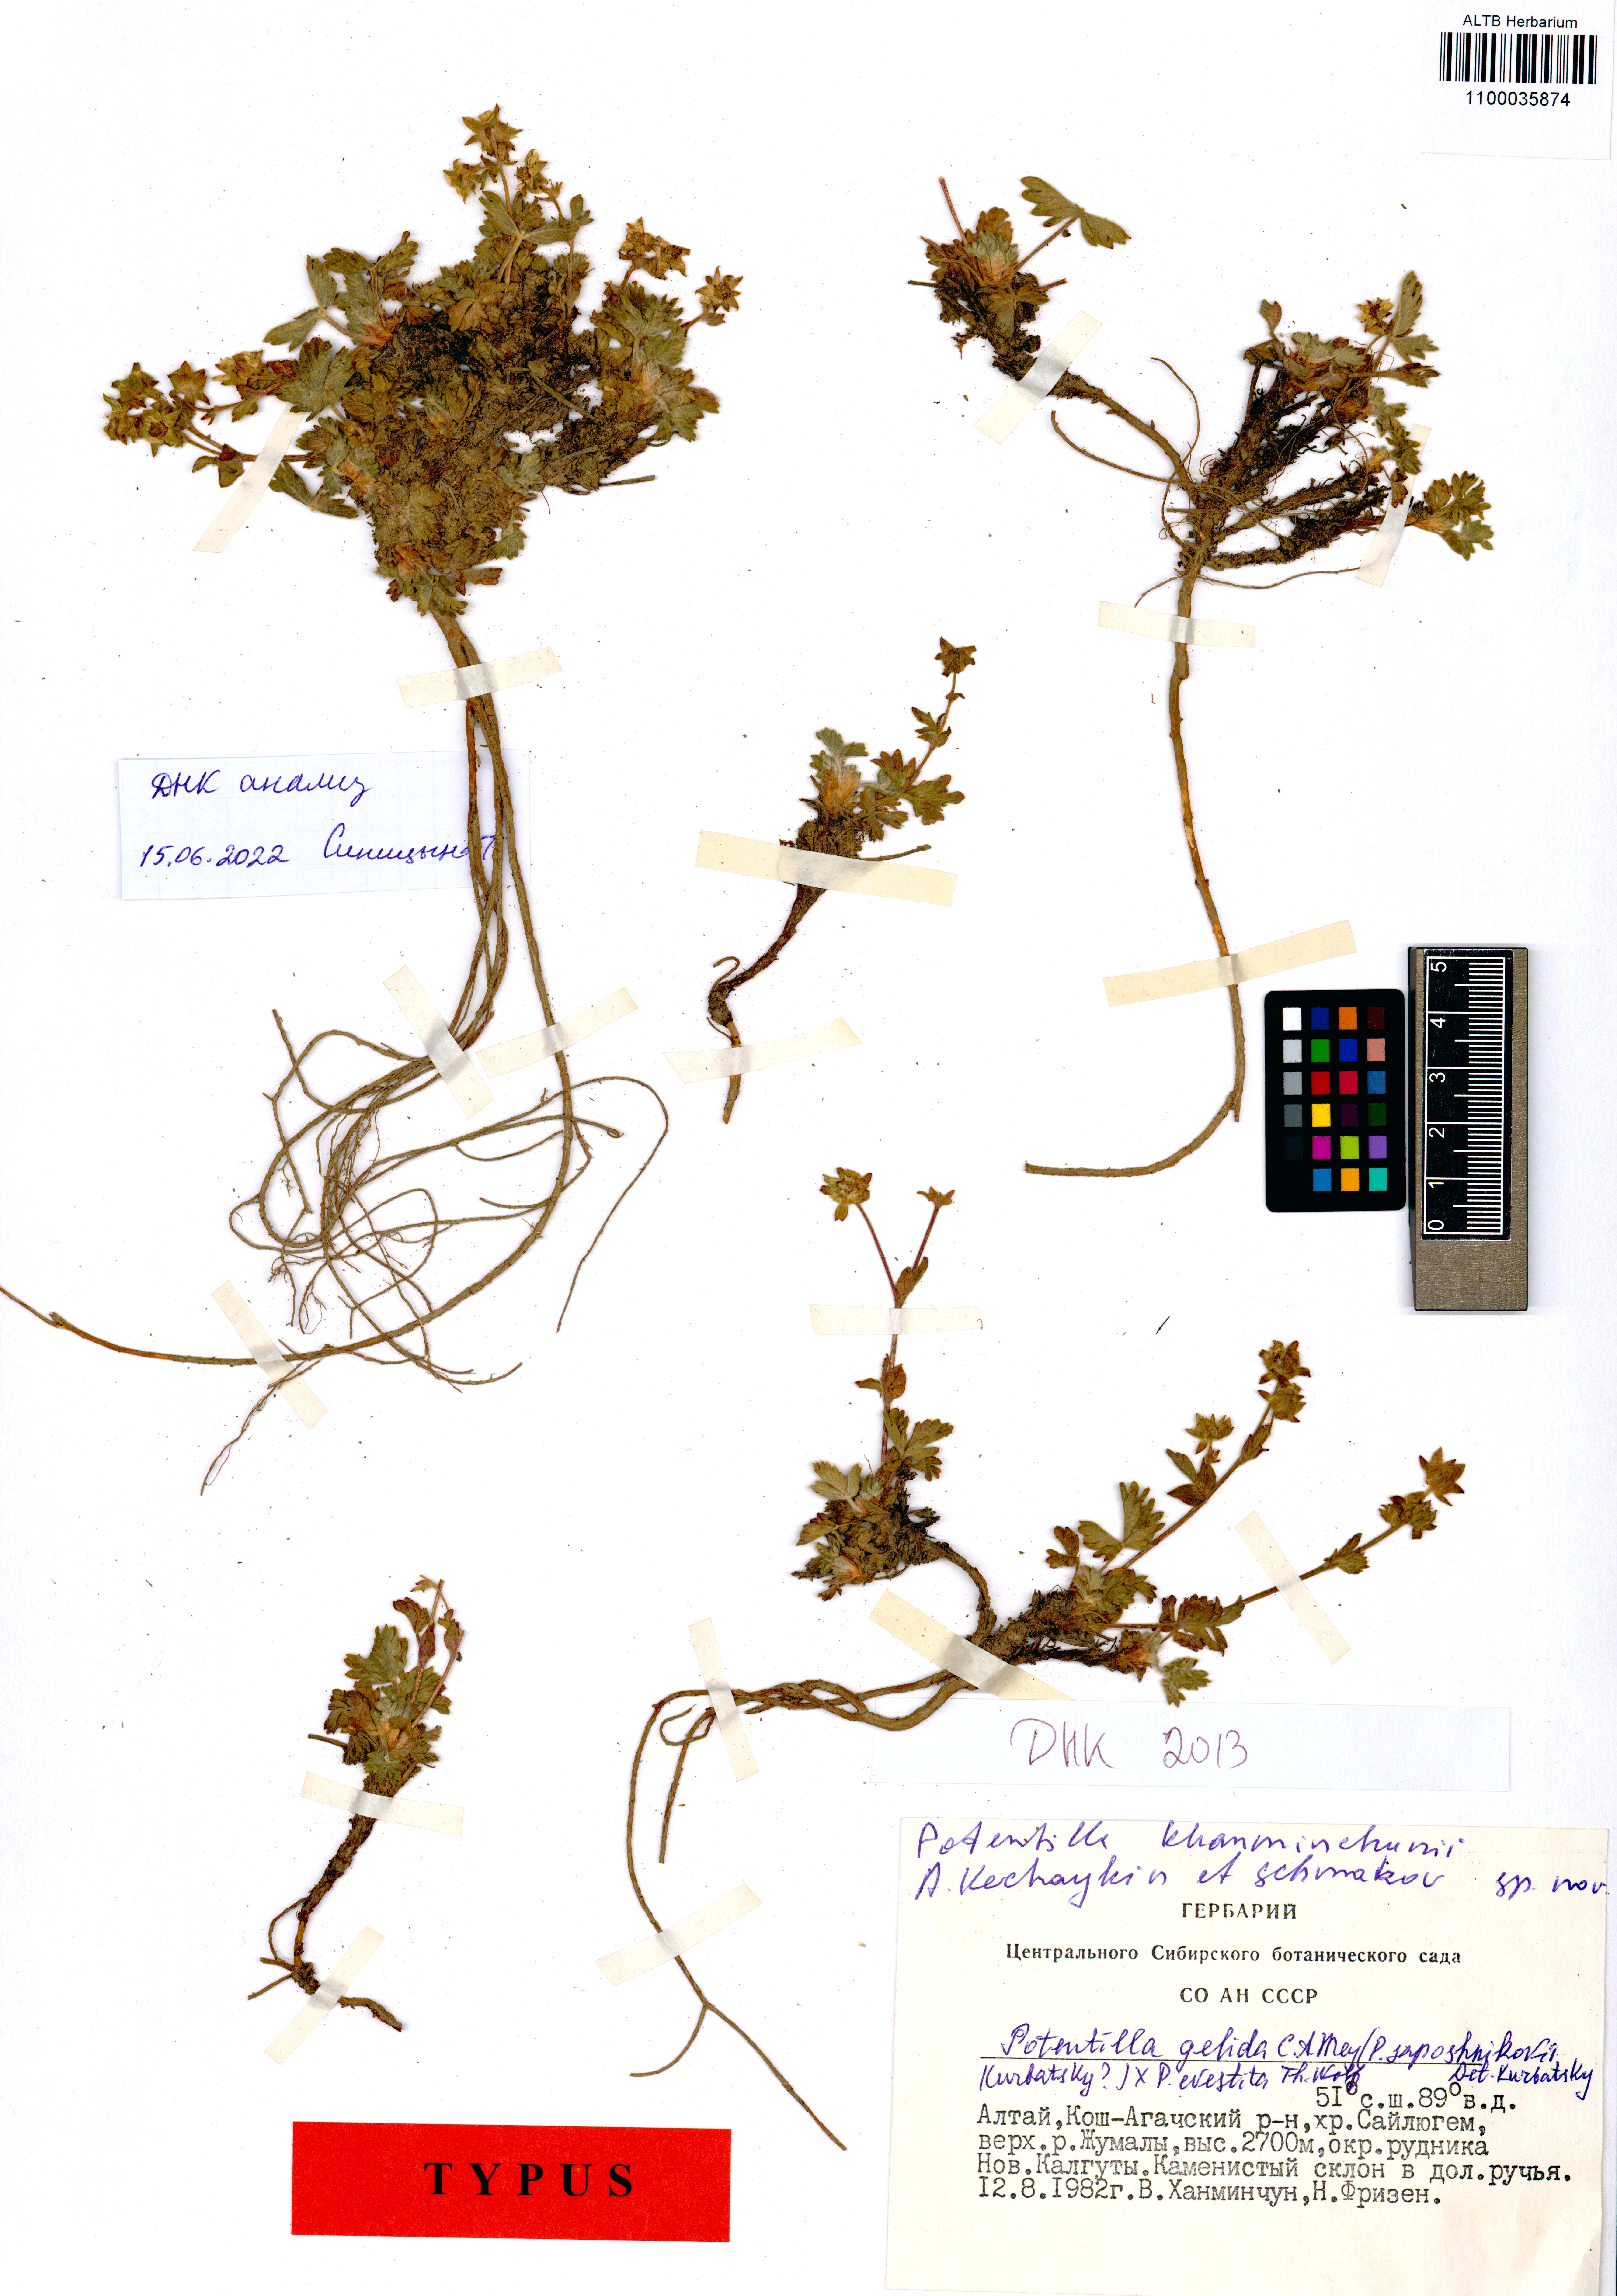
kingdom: Plantae
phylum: Tracheophyta
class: Magnoliopsida
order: Rosales
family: Rosaceae
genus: Potentilla
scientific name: Potentilla khanminczunii
